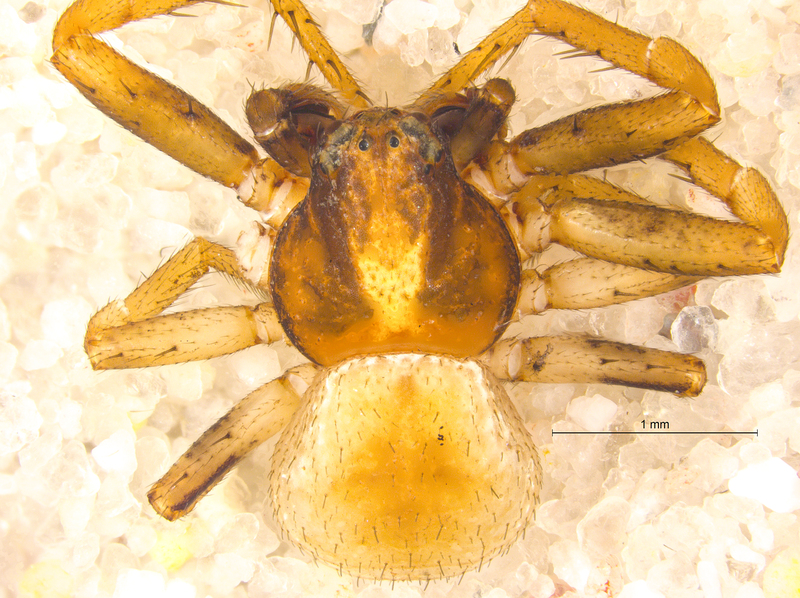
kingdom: Animalia
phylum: Arthropoda
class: Arachnida
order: Araneae
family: Thomisidae
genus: Ozyptila
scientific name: Ozyptila simplex
